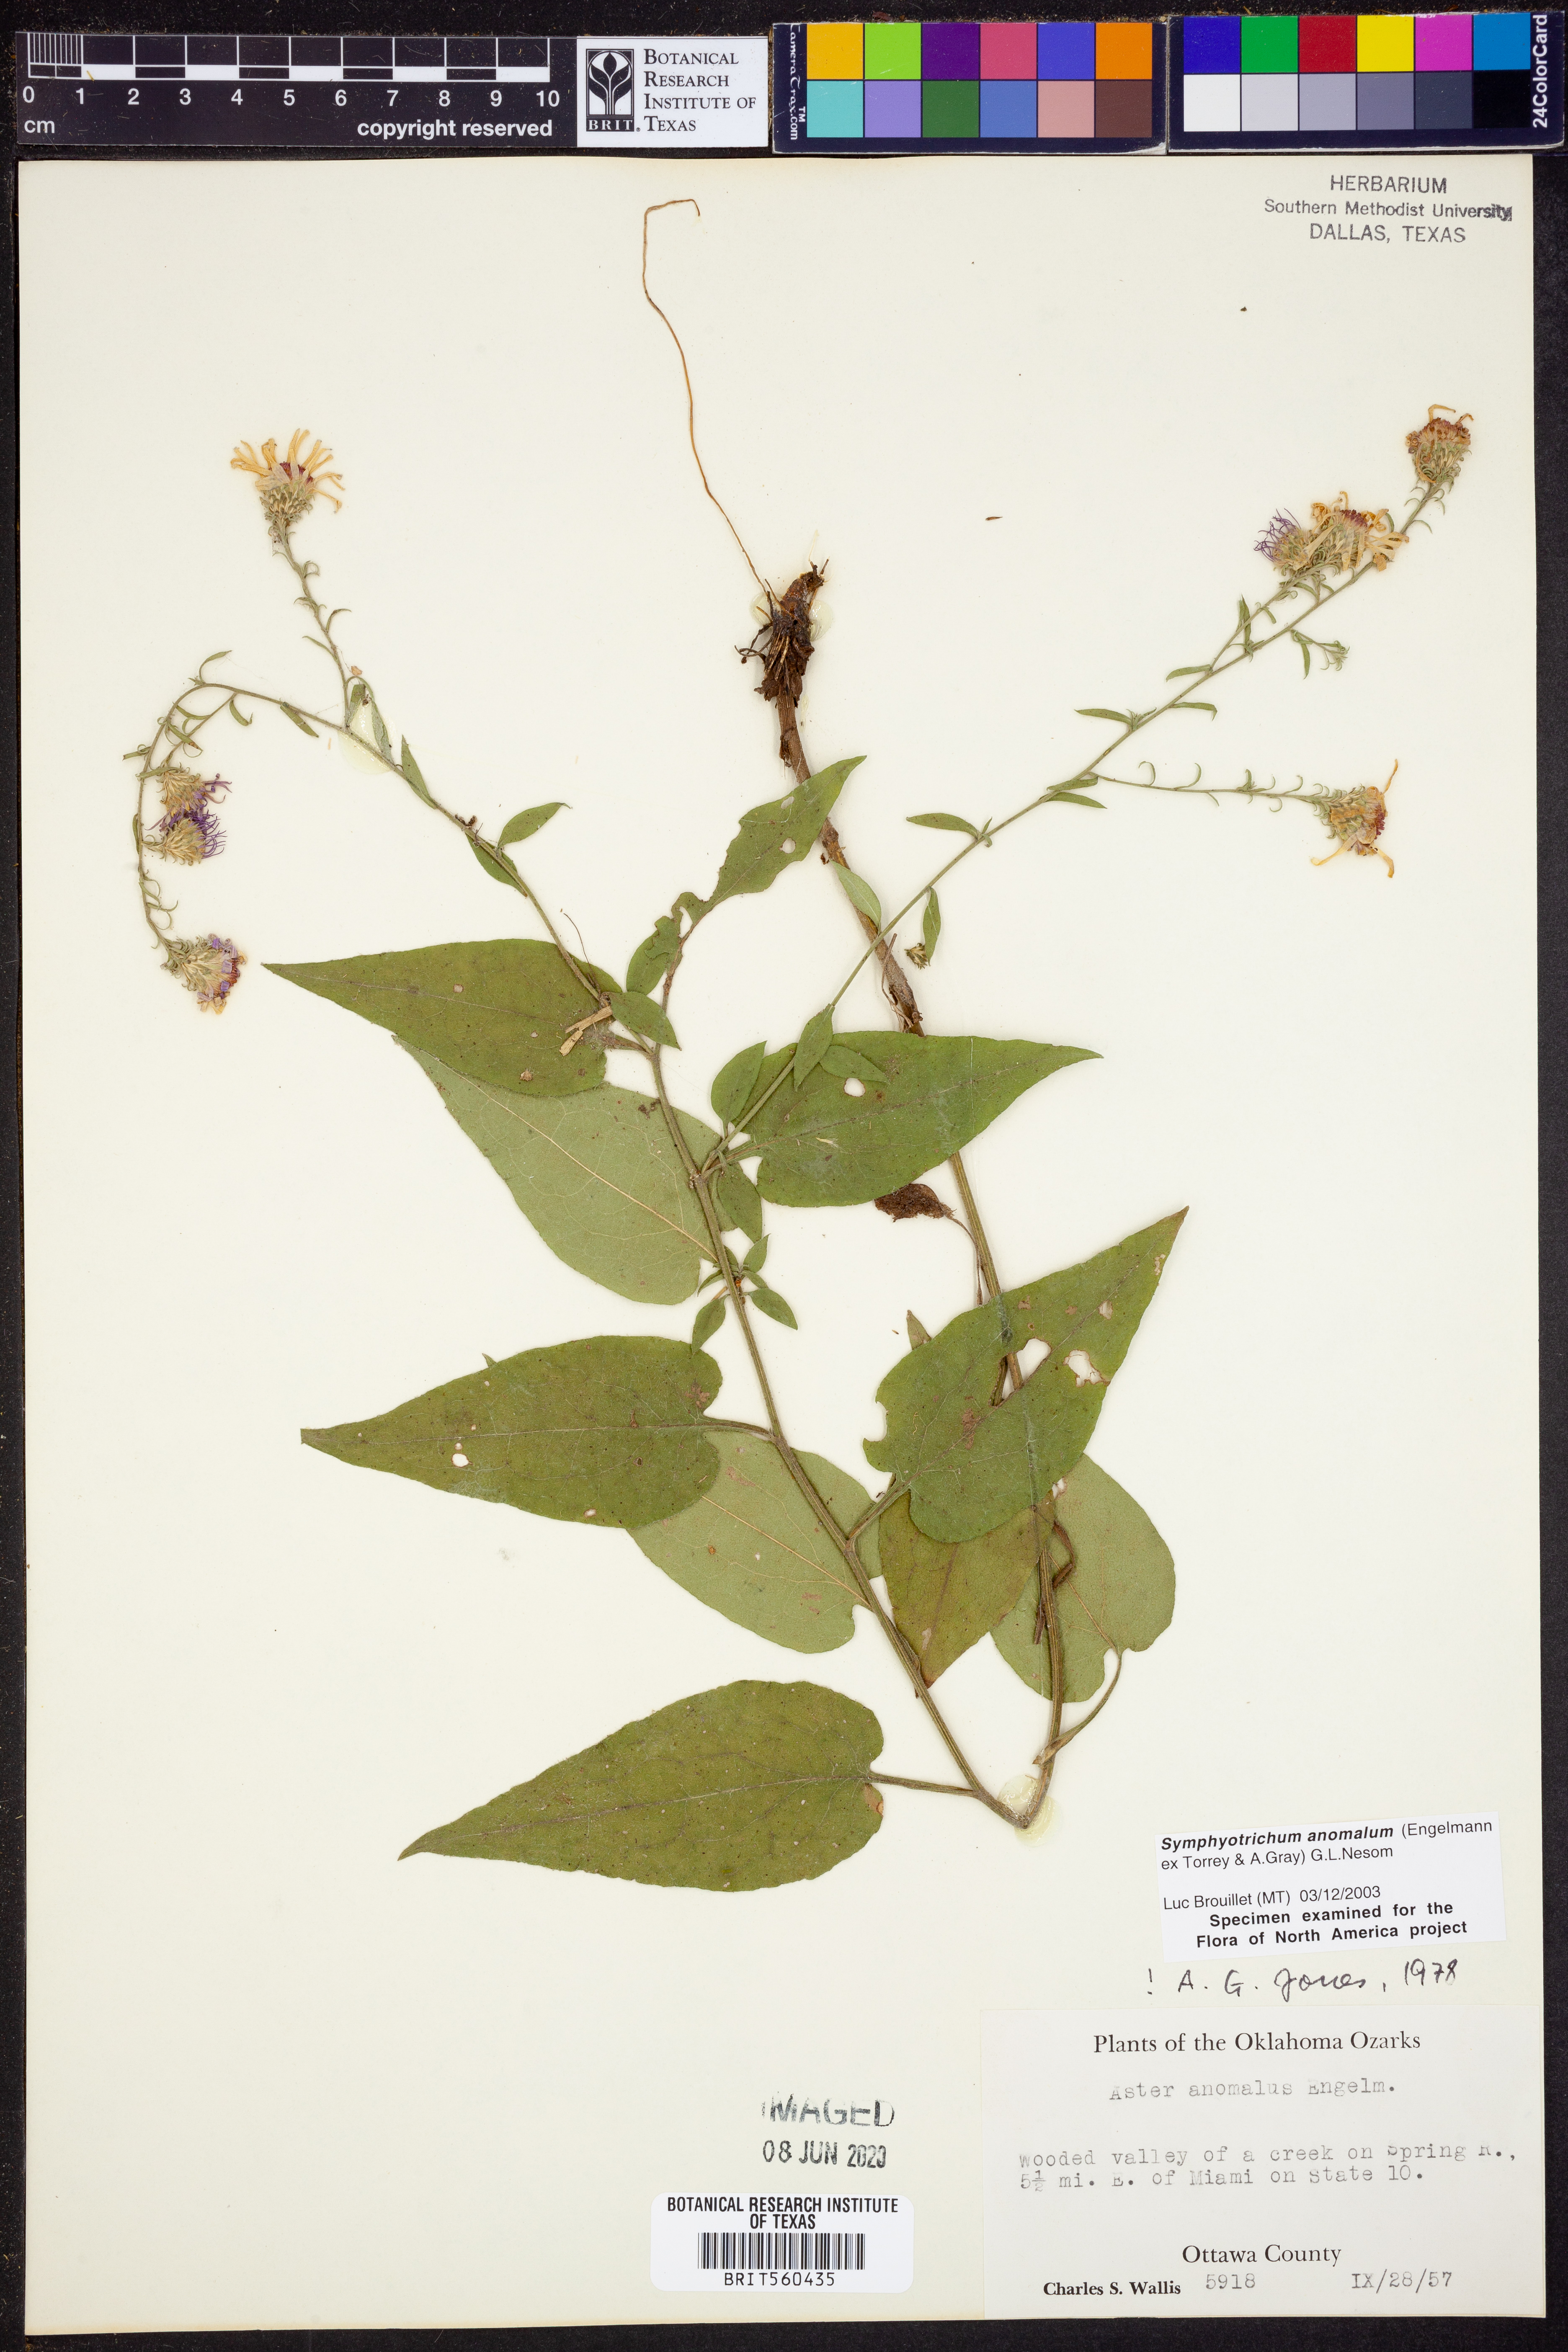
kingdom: Plantae
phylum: Tracheophyta
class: Magnoliopsida
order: Asterales
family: Asteraceae
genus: Symphyotrichum
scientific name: Symphyotrichum anomalum
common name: Many-ray aster
